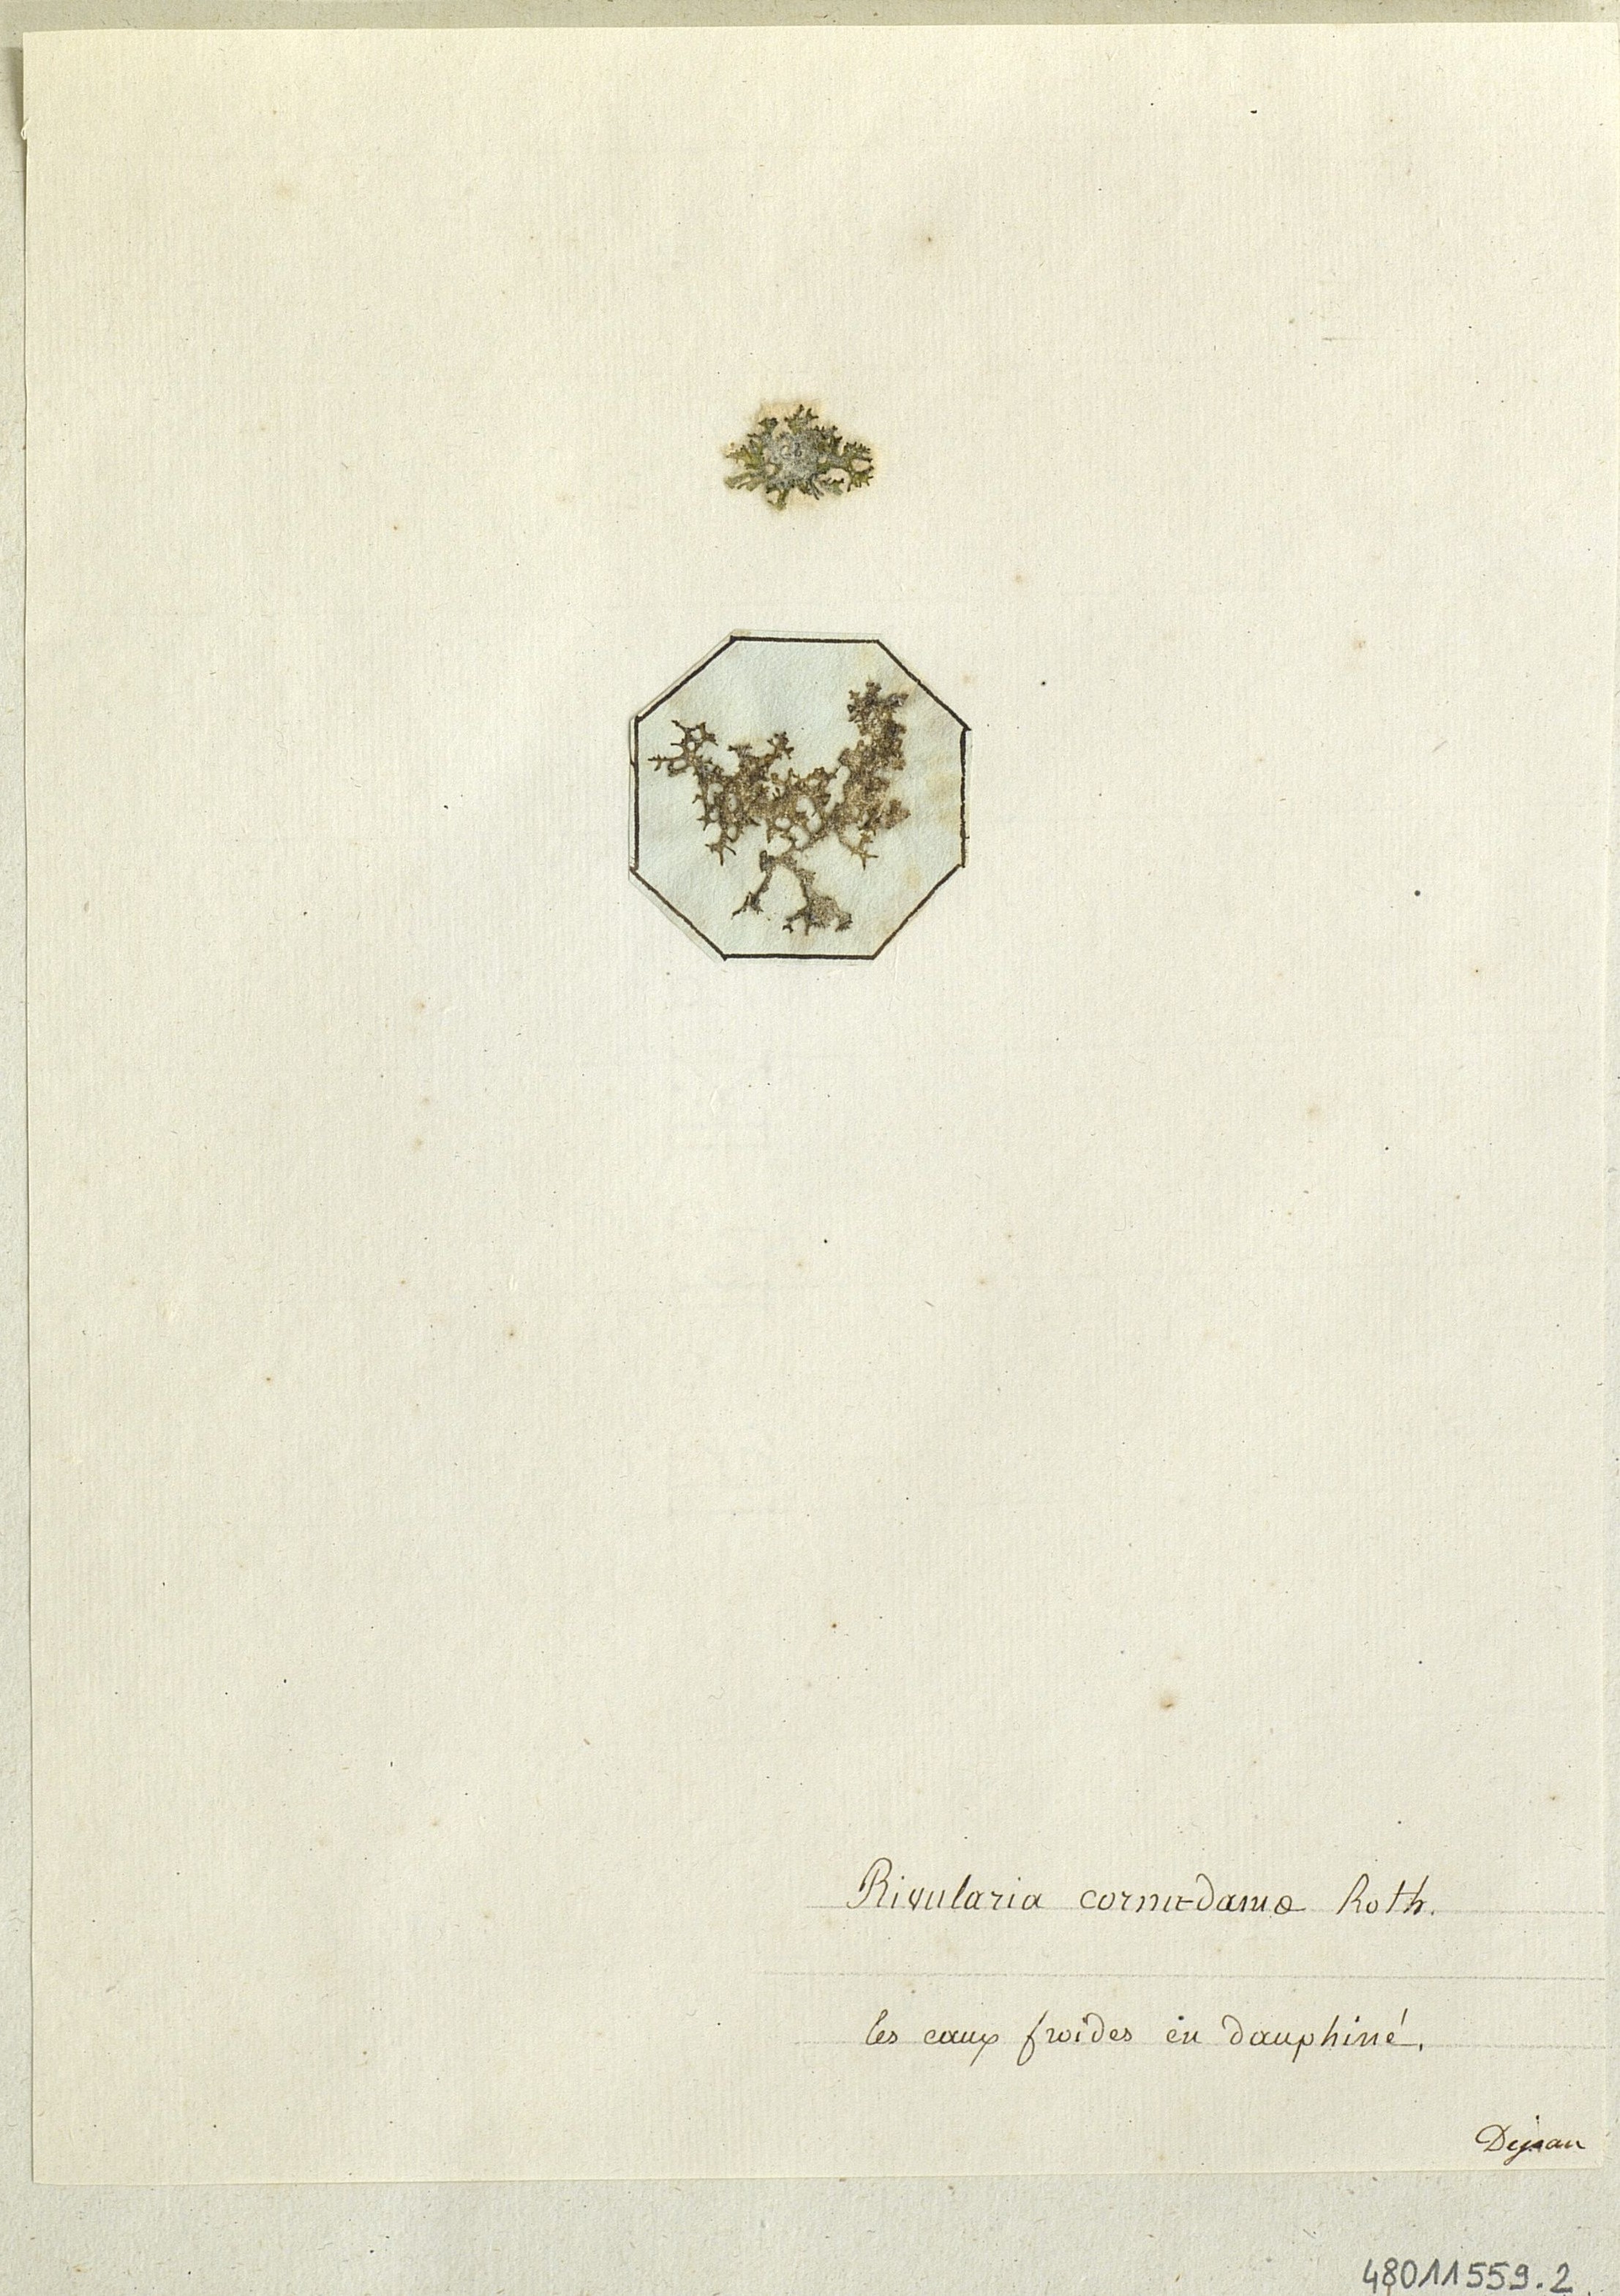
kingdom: Plantae
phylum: Chlorophyta
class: Chlorophyceae
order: Chaetophorales
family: Chaetophoraceae
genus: Rivularia
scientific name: Rivularia
